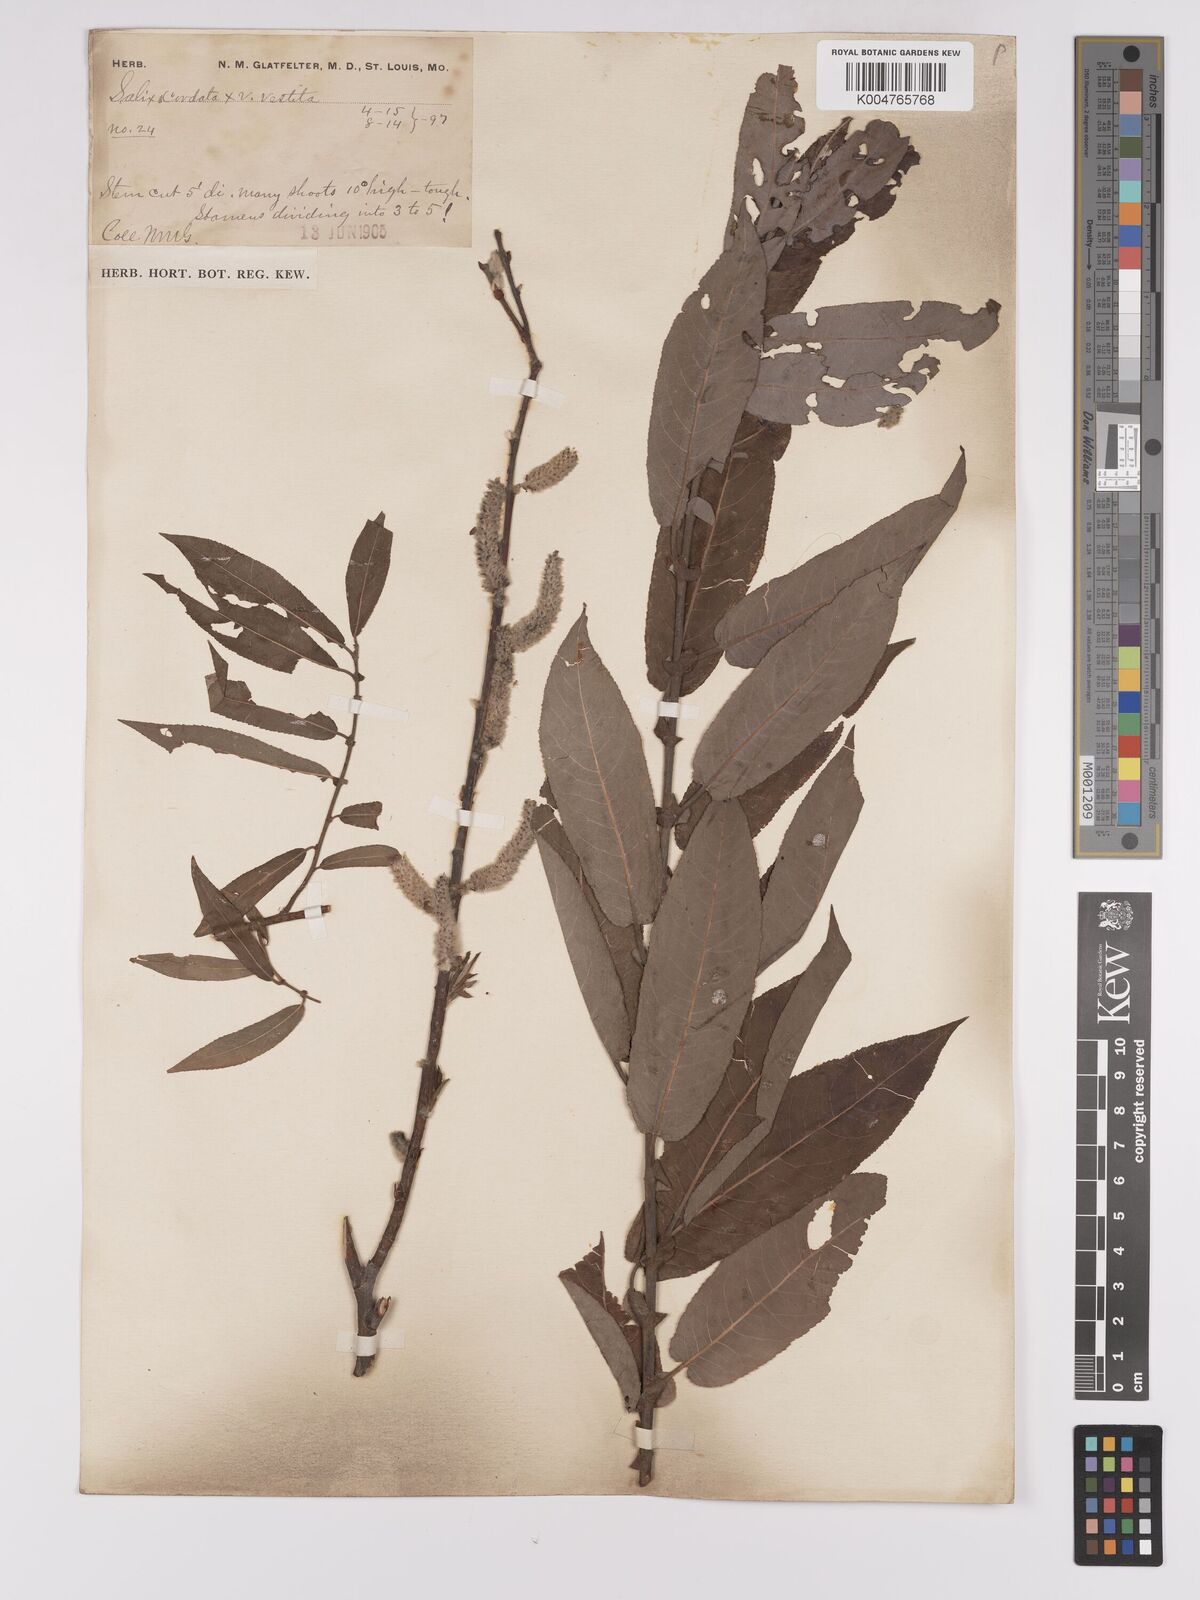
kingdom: Plantae
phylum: Tracheophyta
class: Magnoliopsida
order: Malpighiales
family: Salicaceae
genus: Salix
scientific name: Salix cordata
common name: Heart-leaf willow
